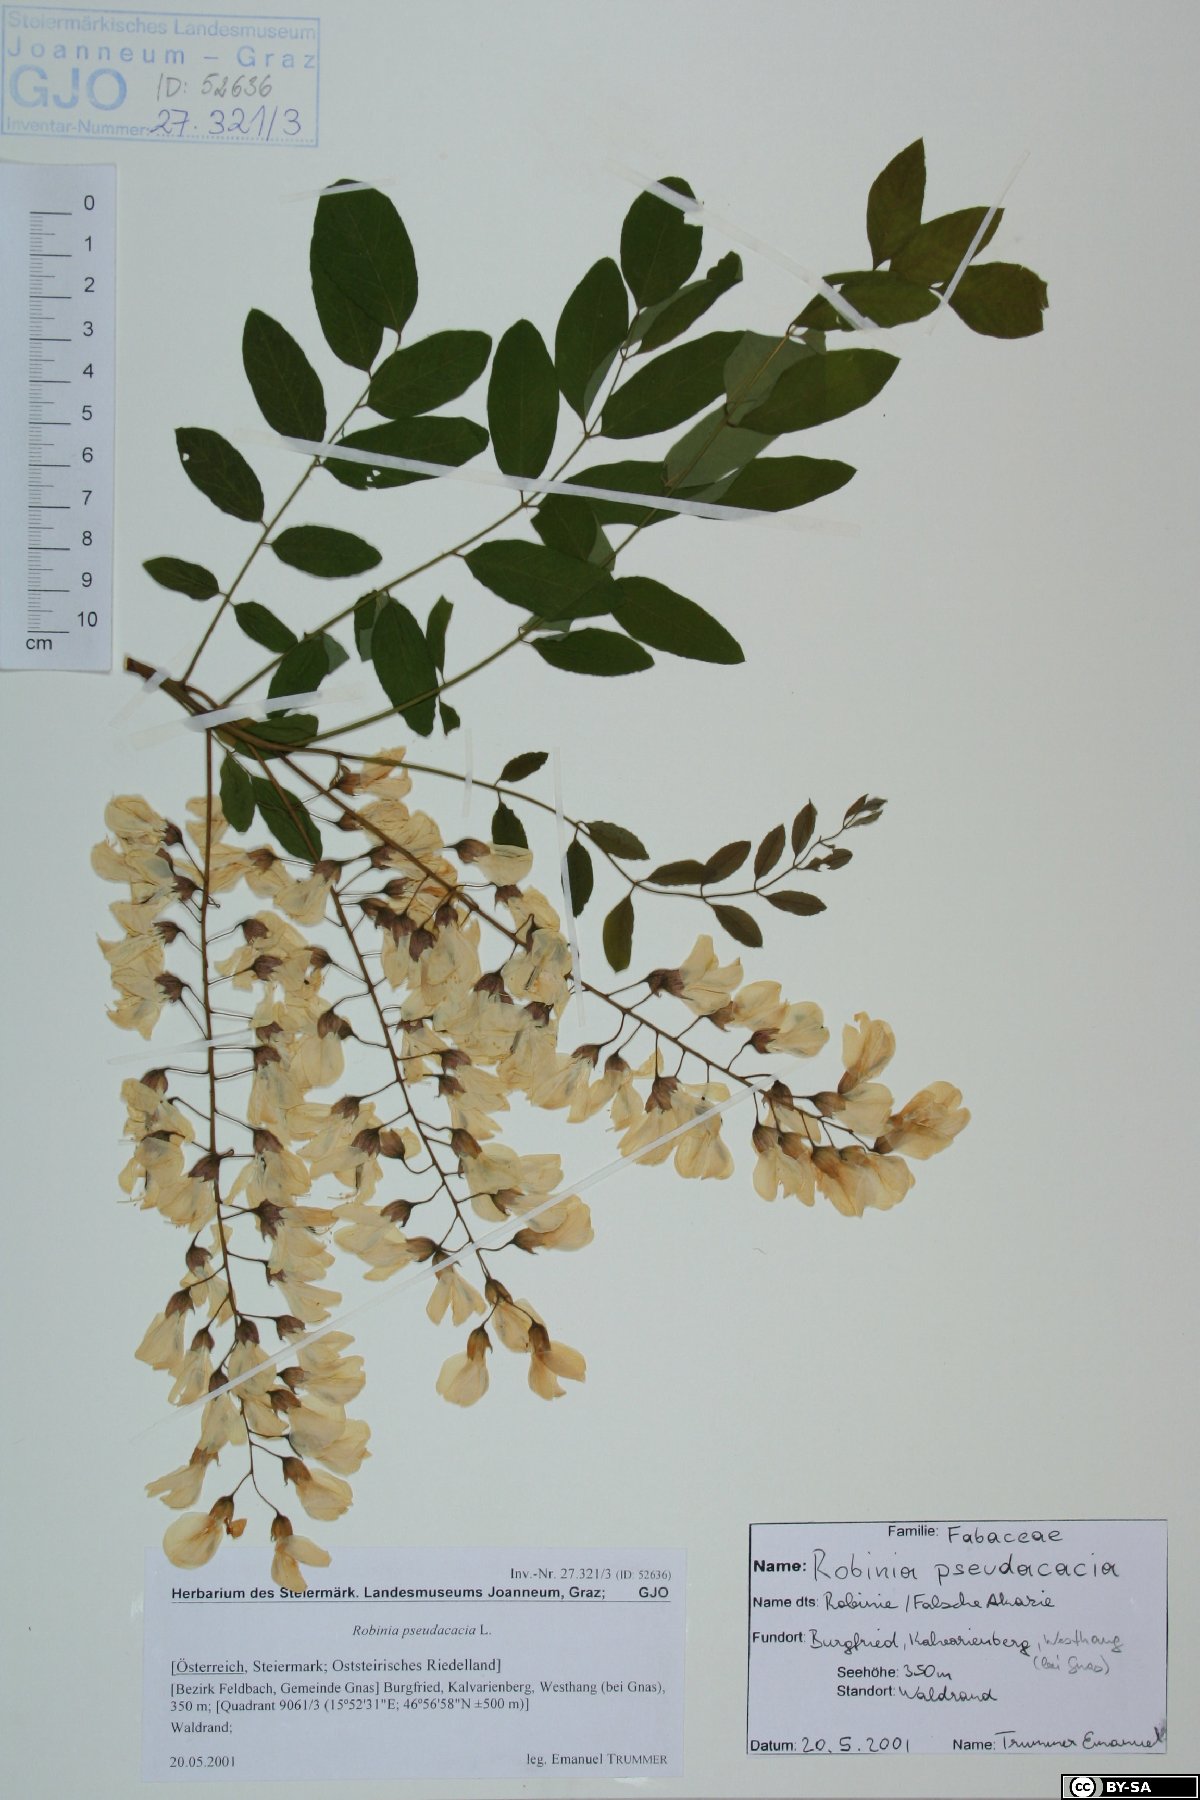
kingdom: Plantae
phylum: Tracheophyta
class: Magnoliopsida
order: Fabales
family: Fabaceae
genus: Robinia
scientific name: Robinia pseudoacacia
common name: Black locust
